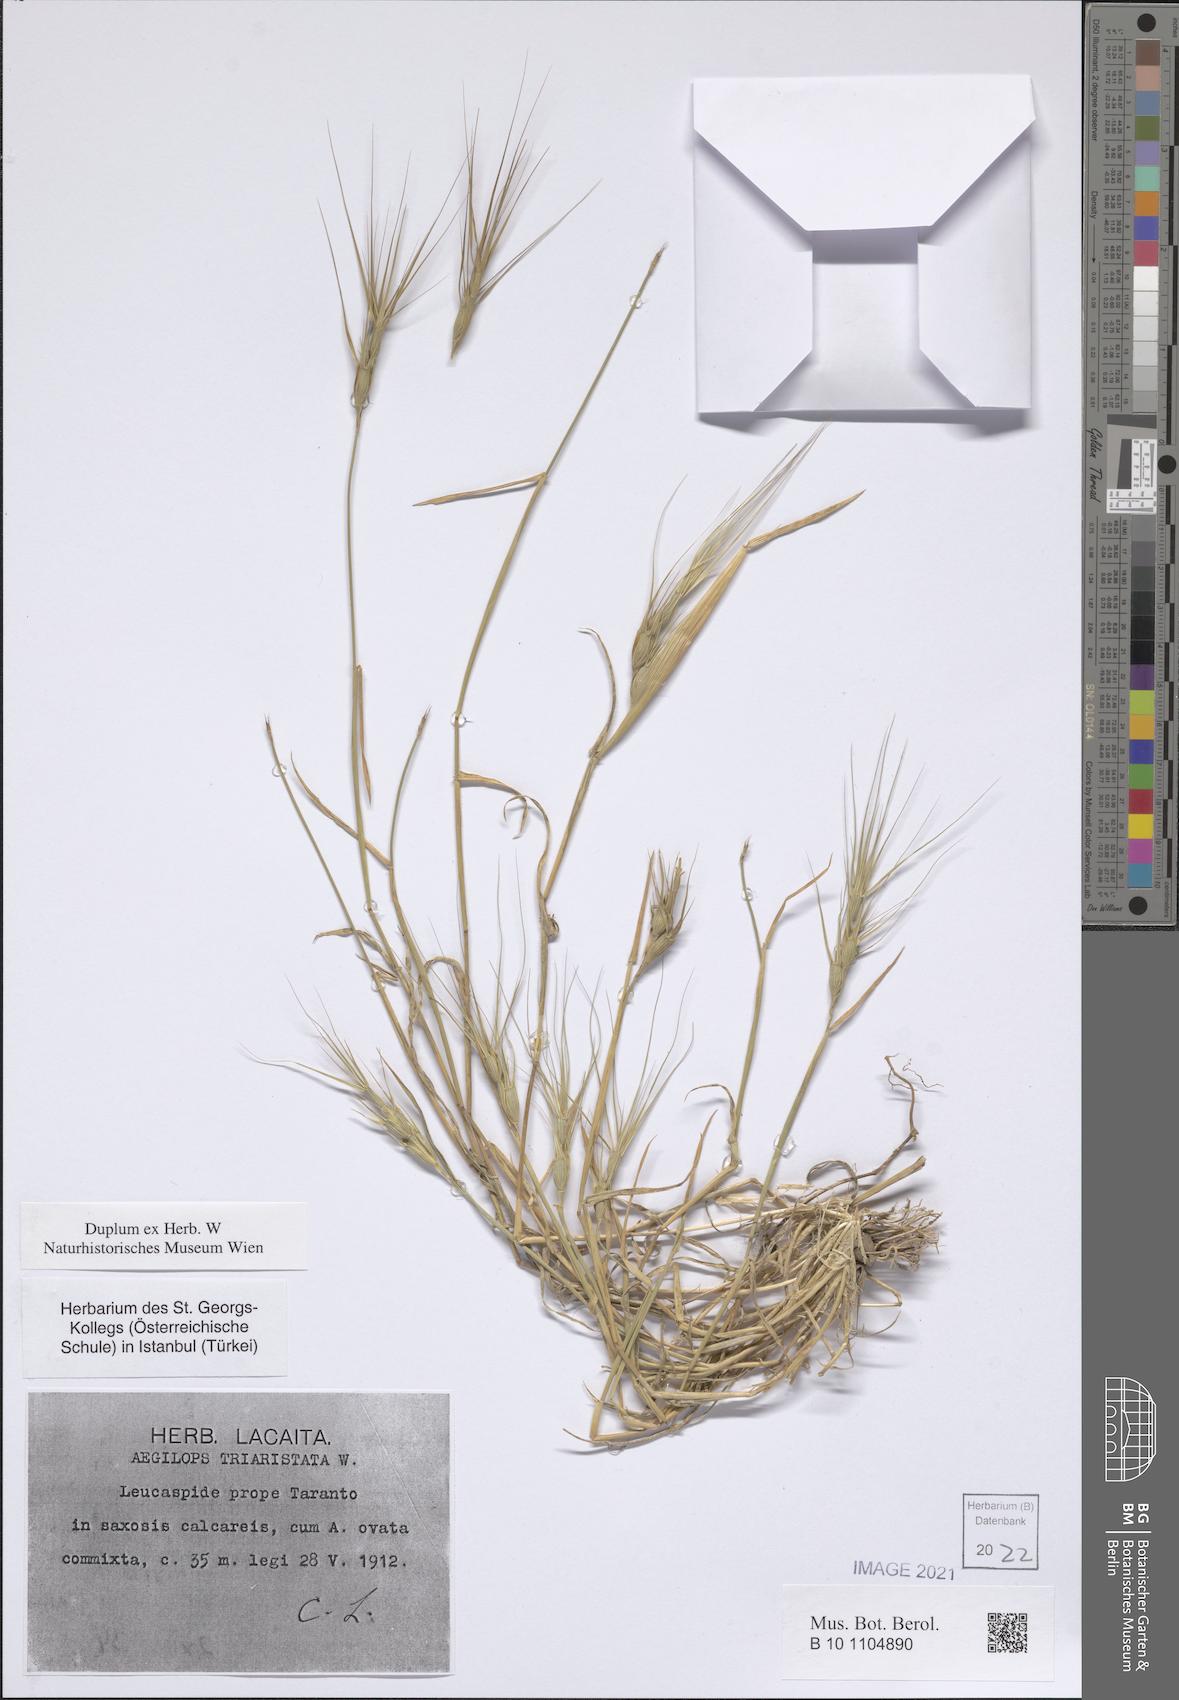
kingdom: Plantae
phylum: Tracheophyta
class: Liliopsida
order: Poales
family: Poaceae
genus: Aegilops
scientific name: Aegilops neglecta
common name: Three-awn goat grass
